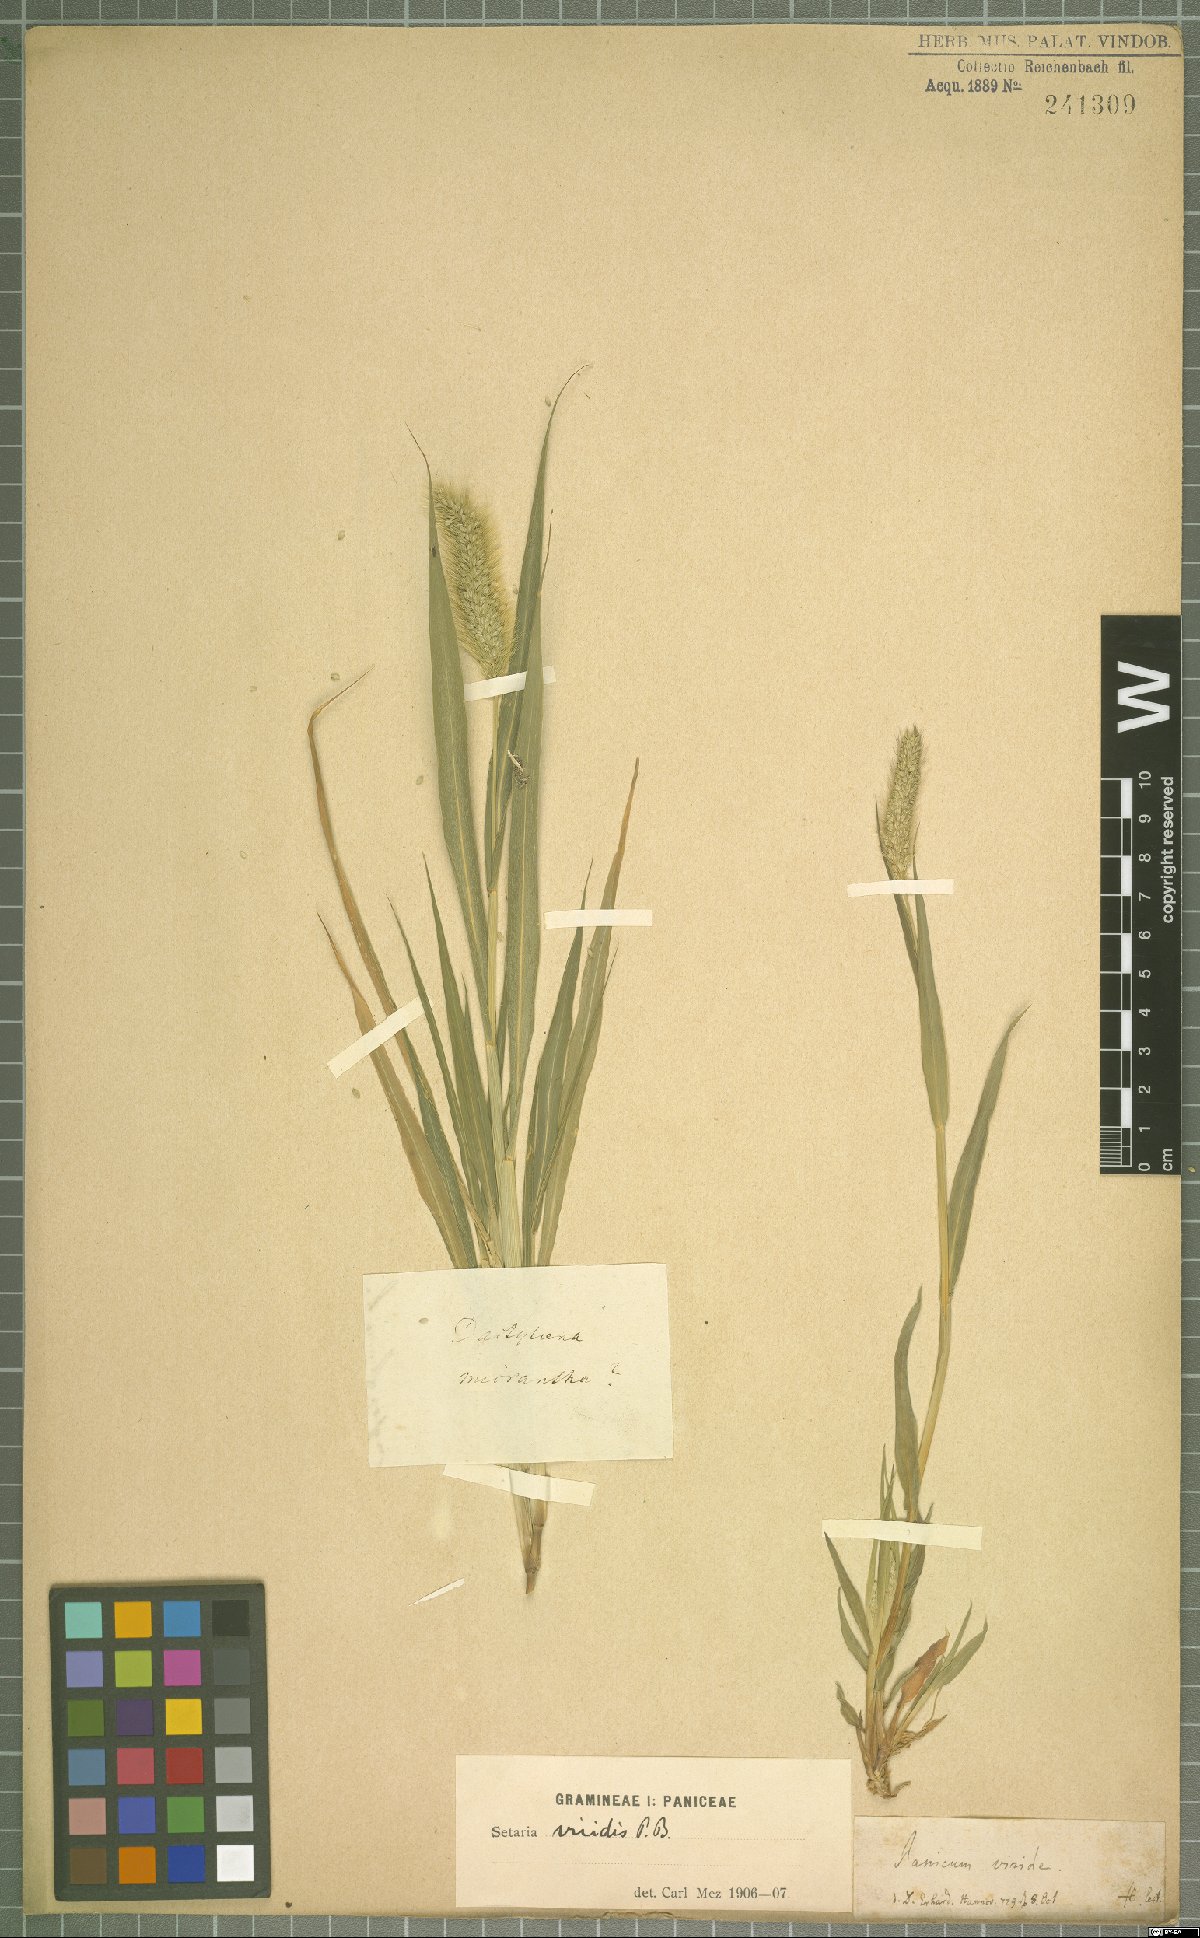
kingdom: Plantae
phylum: Tracheophyta
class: Liliopsida
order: Poales
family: Poaceae
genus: Setaria
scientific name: Setaria viridis
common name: Green bristlegrass
